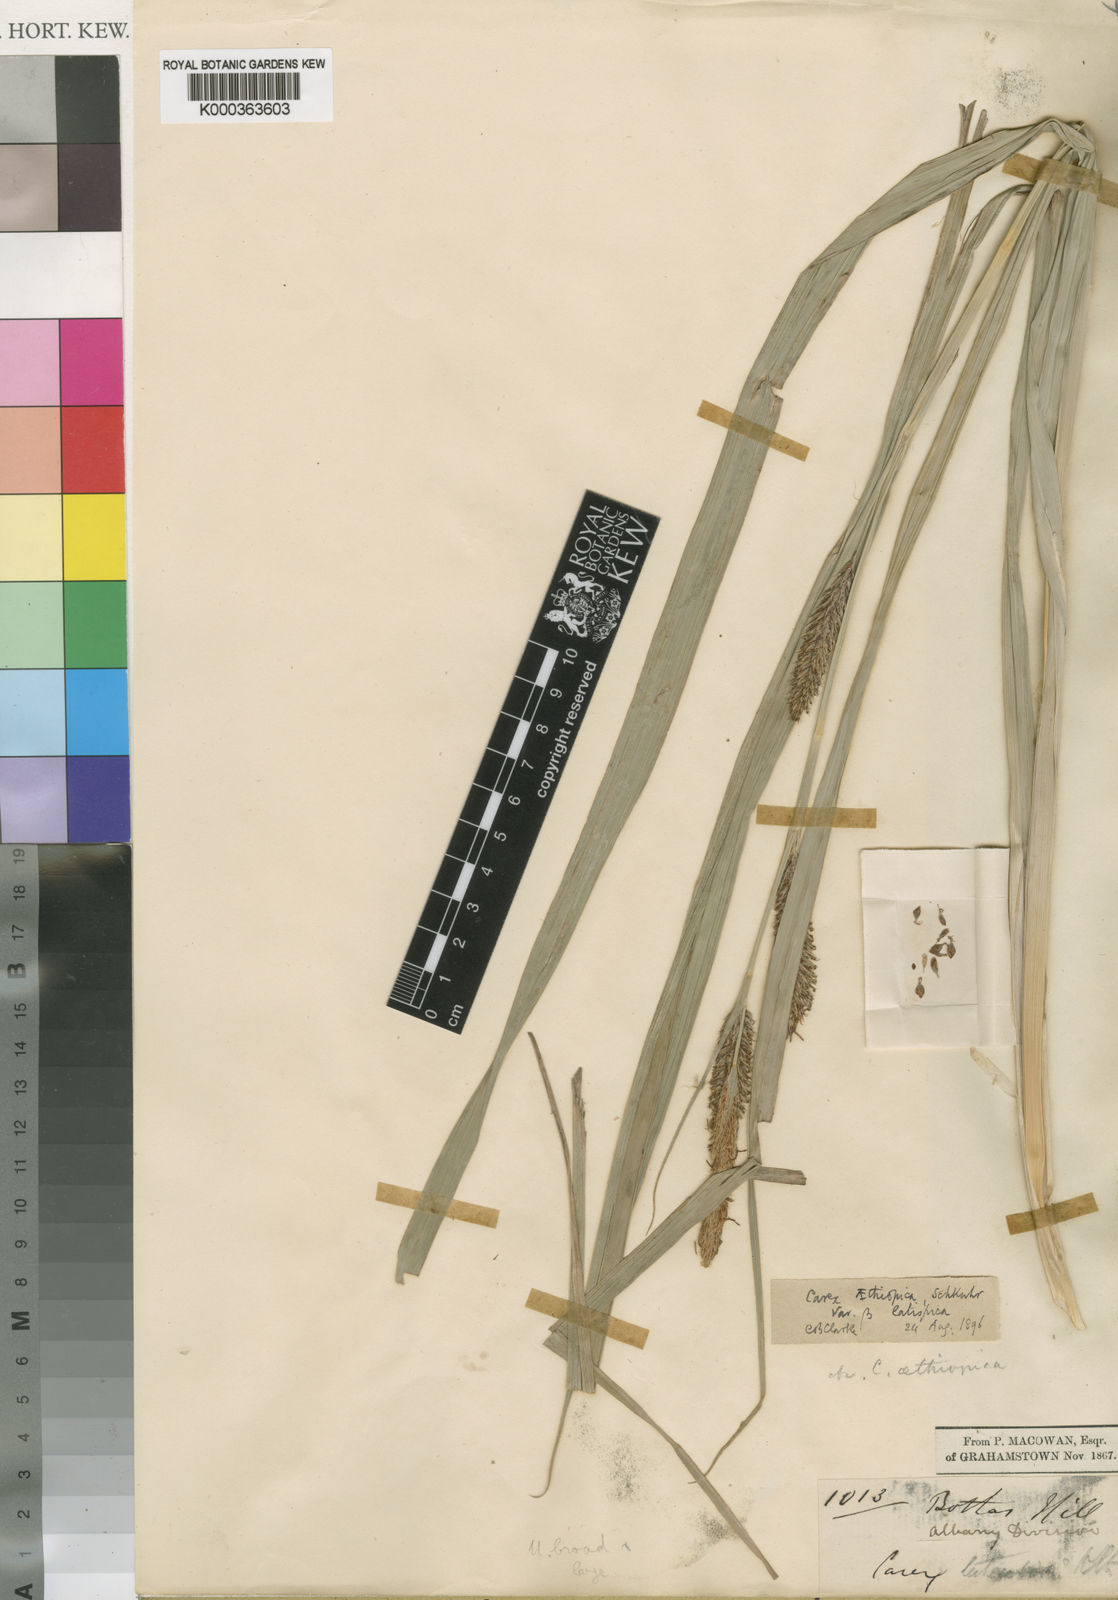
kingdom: Plantae
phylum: Tracheophyta
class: Liliopsida
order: Poales
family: Cyperaceae
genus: Carex
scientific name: Carex aethiopica
